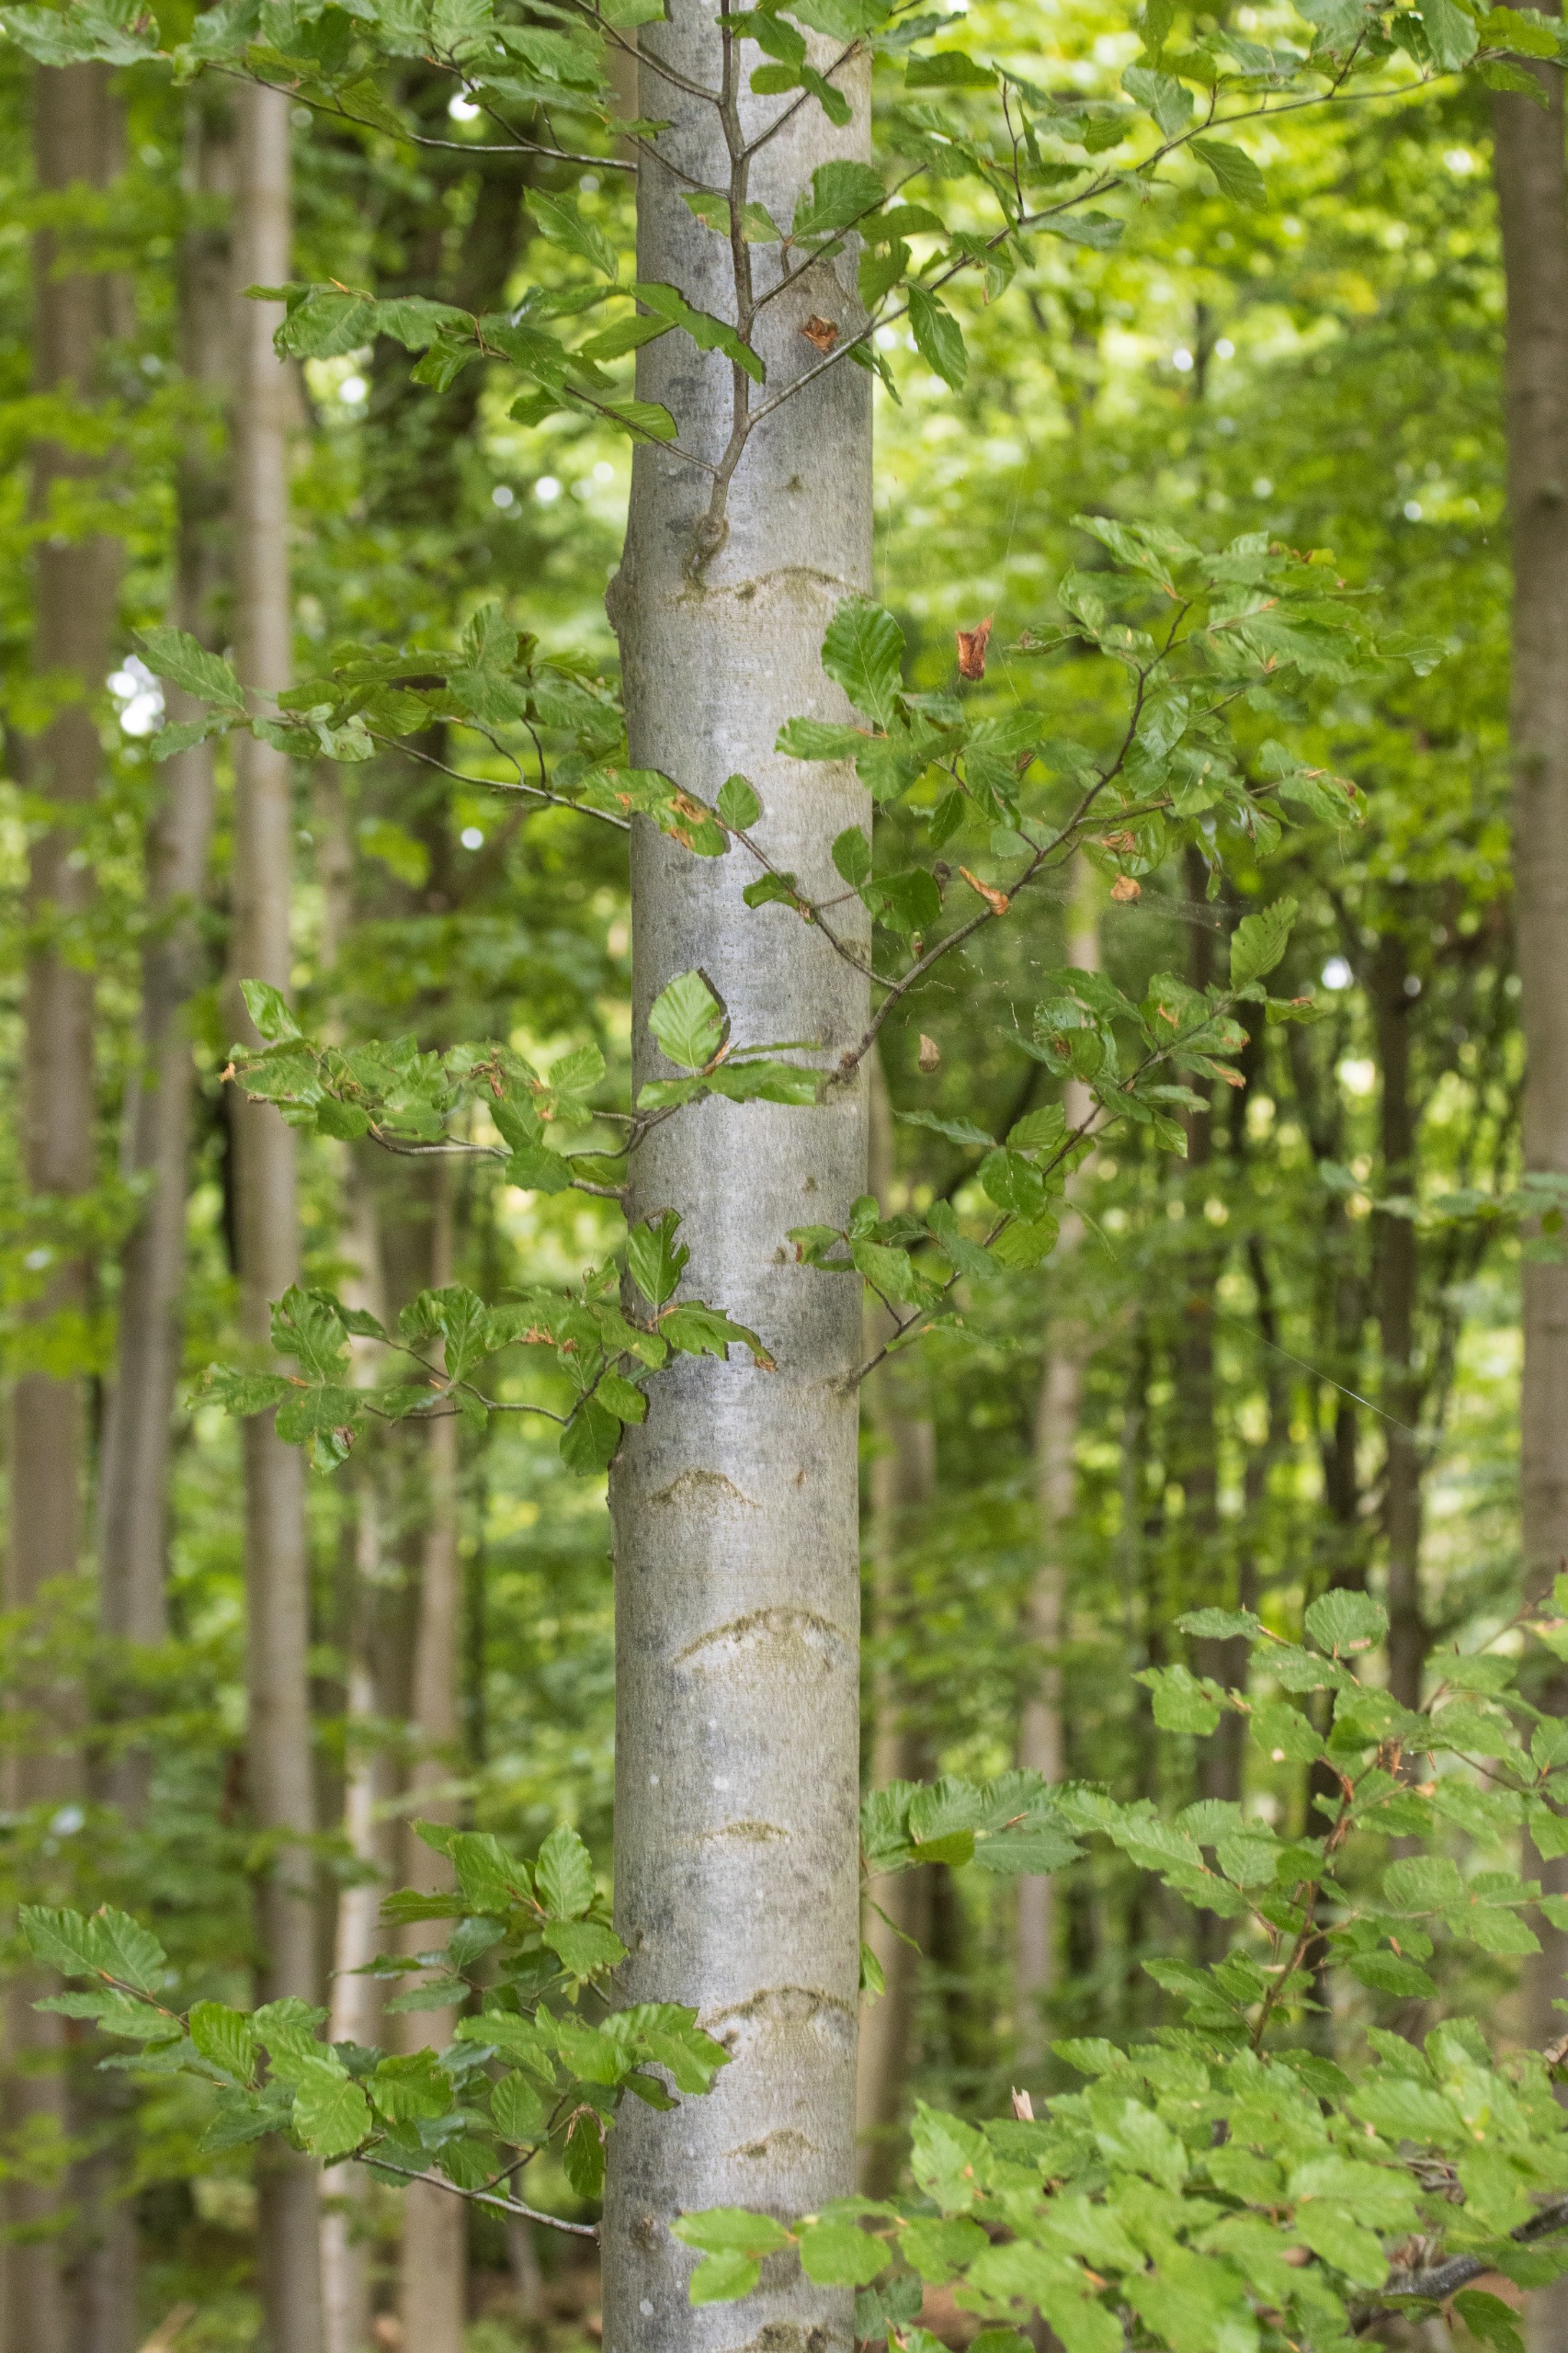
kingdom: Plantae
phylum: Tracheophyta
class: Magnoliopsida
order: Fagales
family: Fagaceae
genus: Fagus
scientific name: Fagus sylvatica
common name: Bøg
